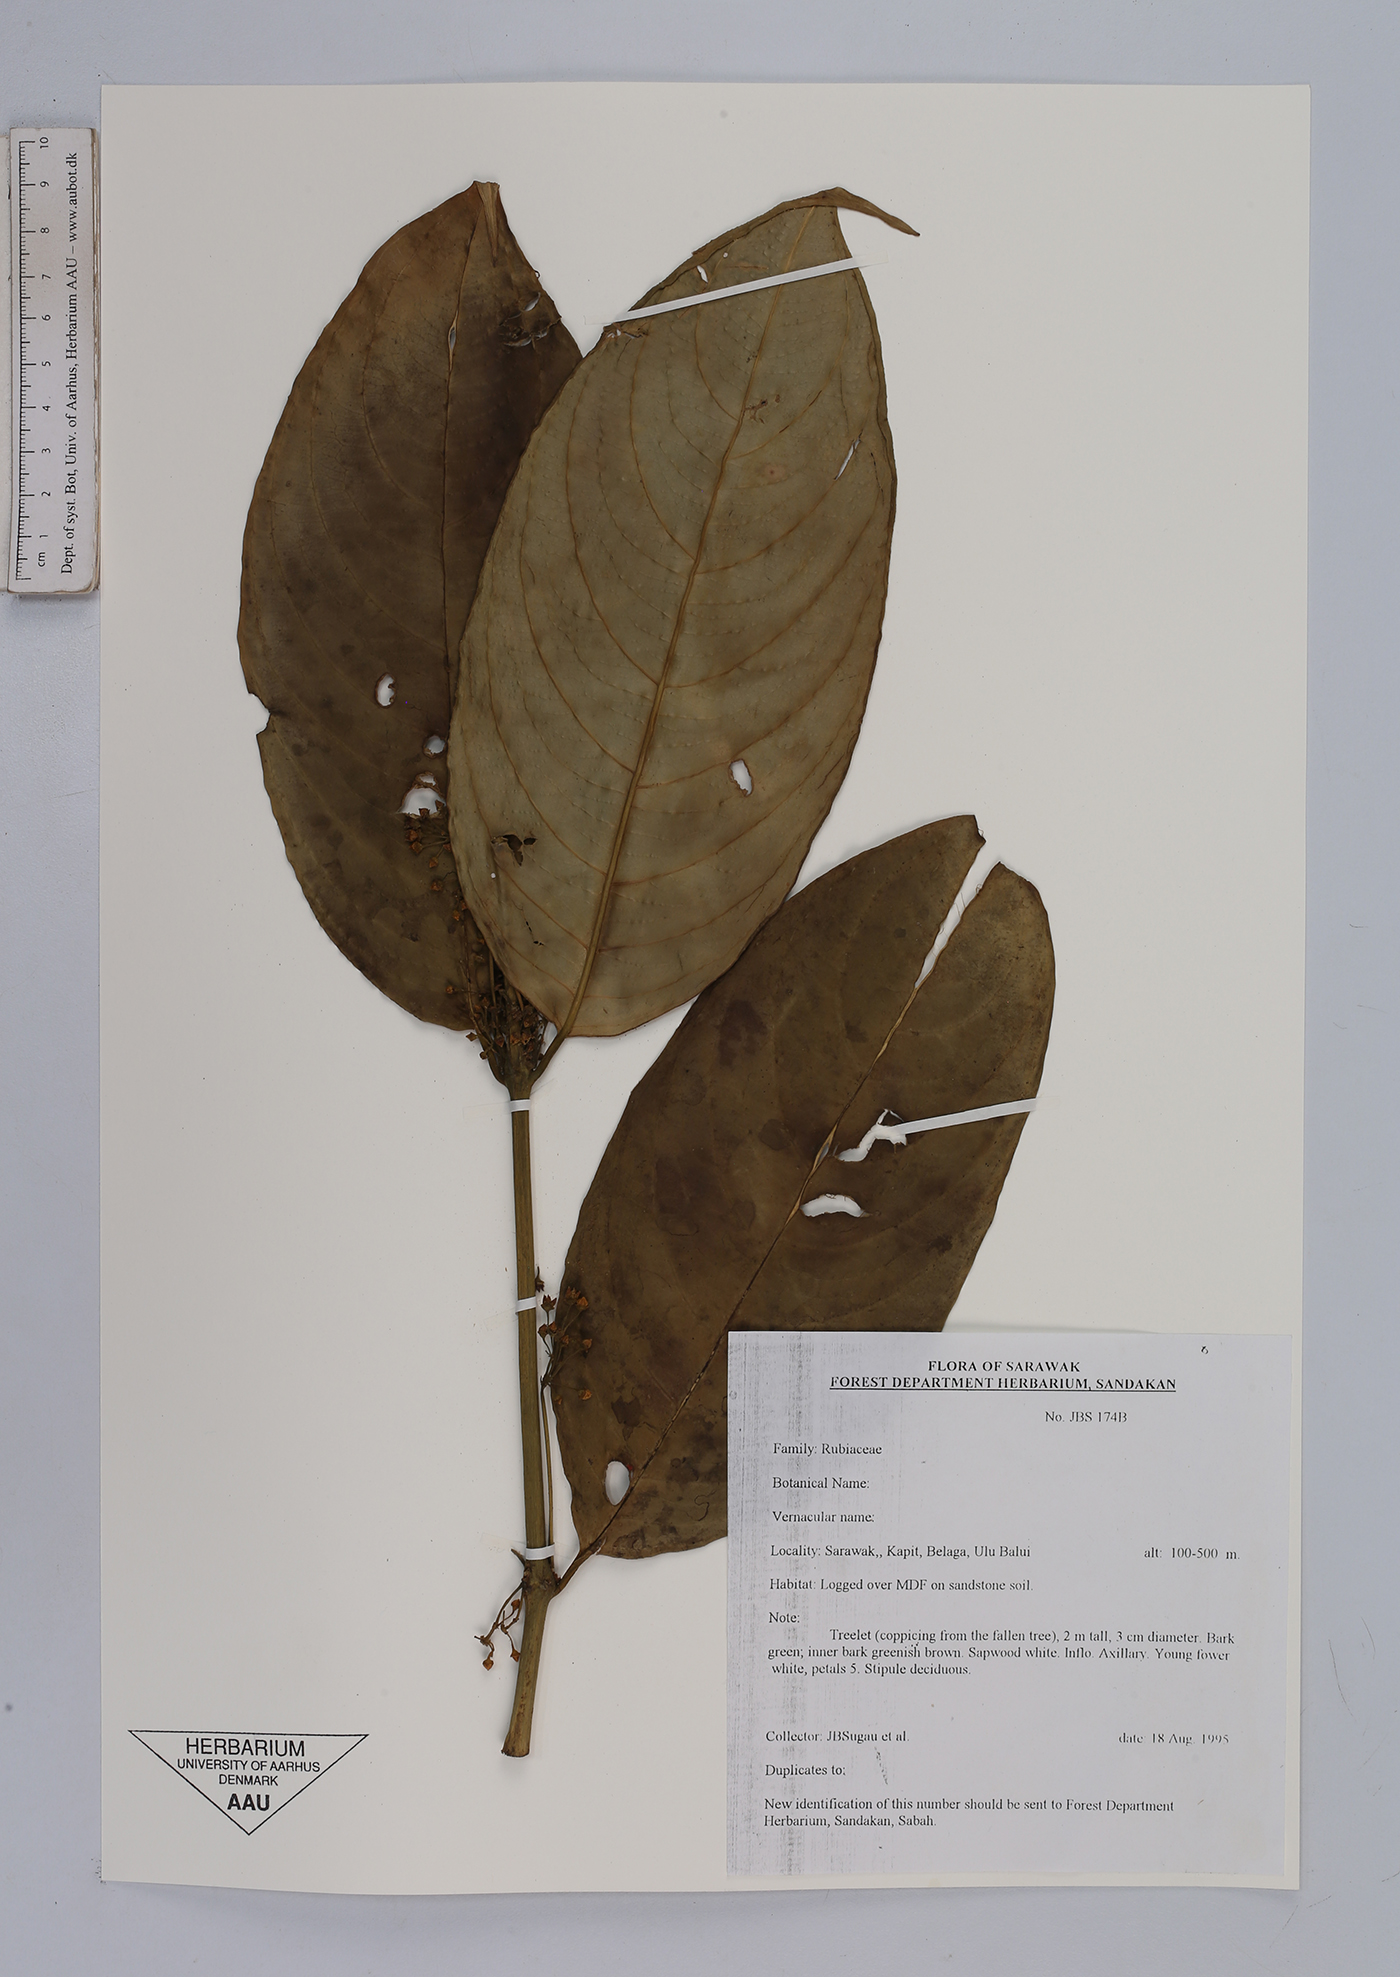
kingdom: Plantae
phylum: Tracheophyta
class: Magnoliopsida
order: Gentianales
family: Rubiaceae
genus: Urophyllum
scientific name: Urophyllum
